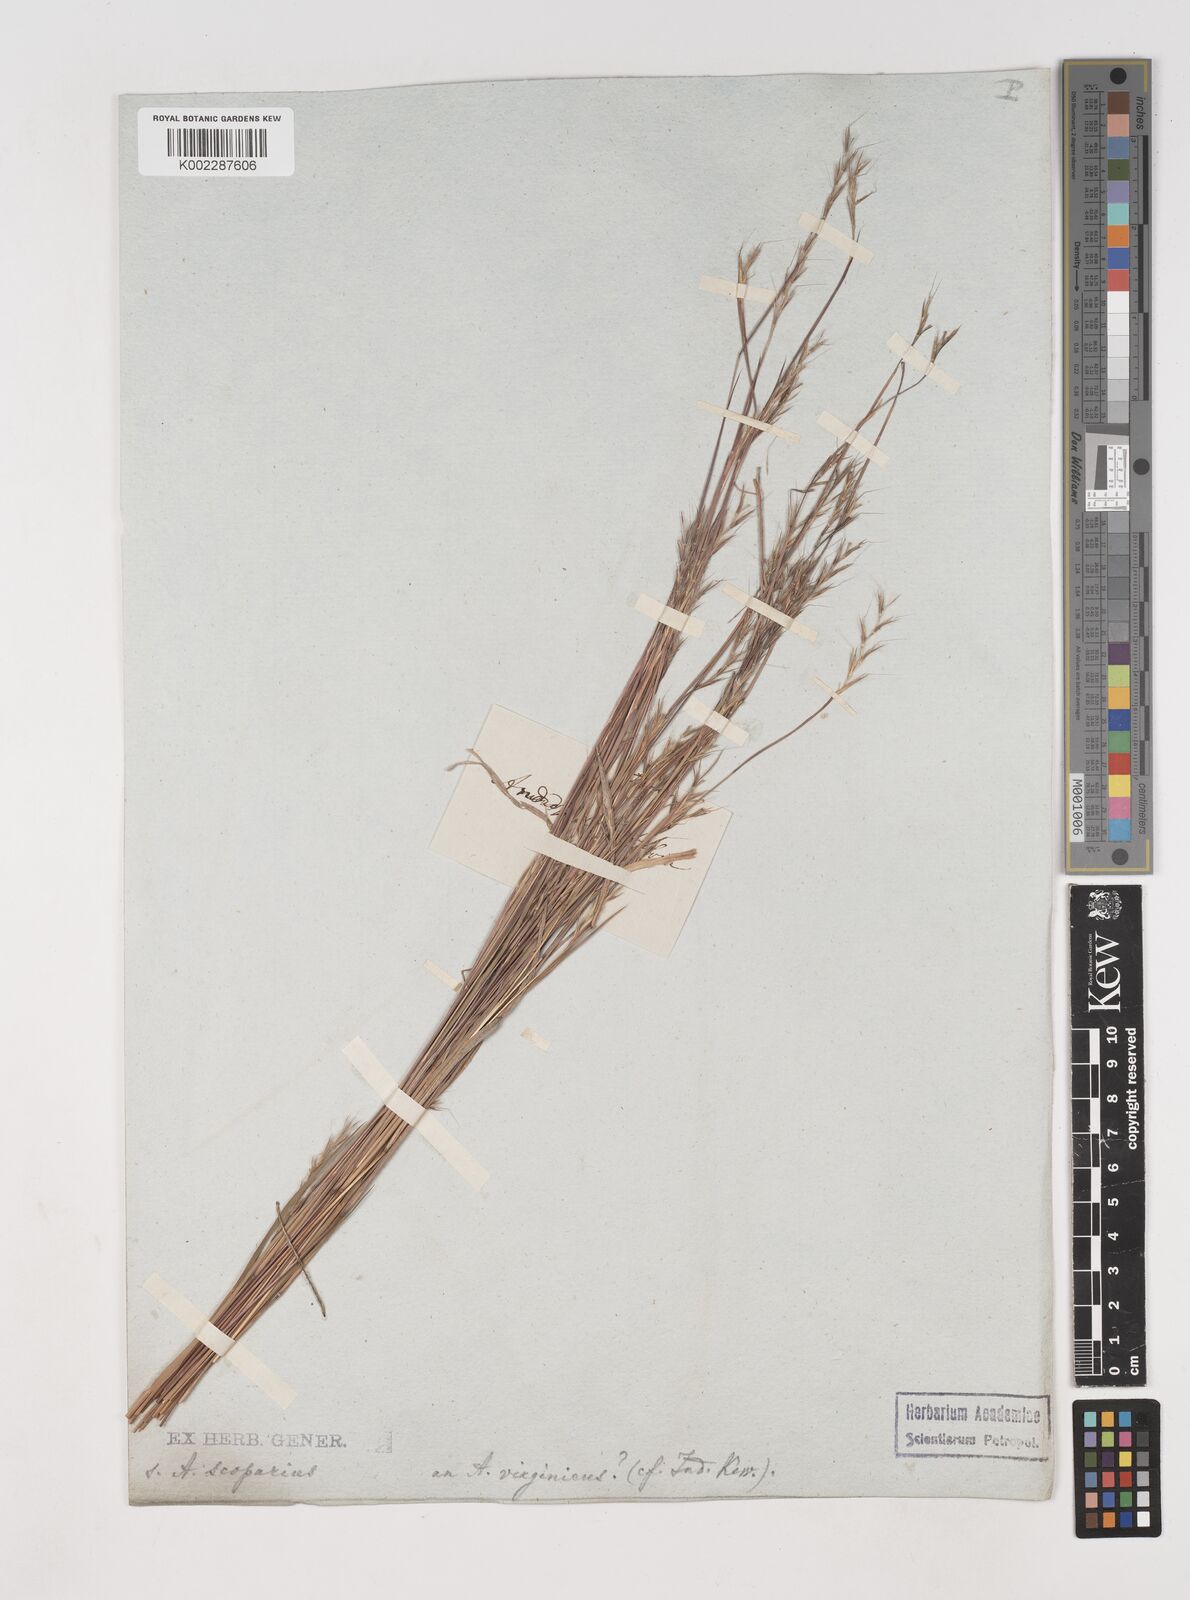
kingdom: Plantae
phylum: Tracheophyta
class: Liliopsida
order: Poales
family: Poaceae
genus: Schizachyrium
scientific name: Schizachyrium scoparium
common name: Little bluestem
